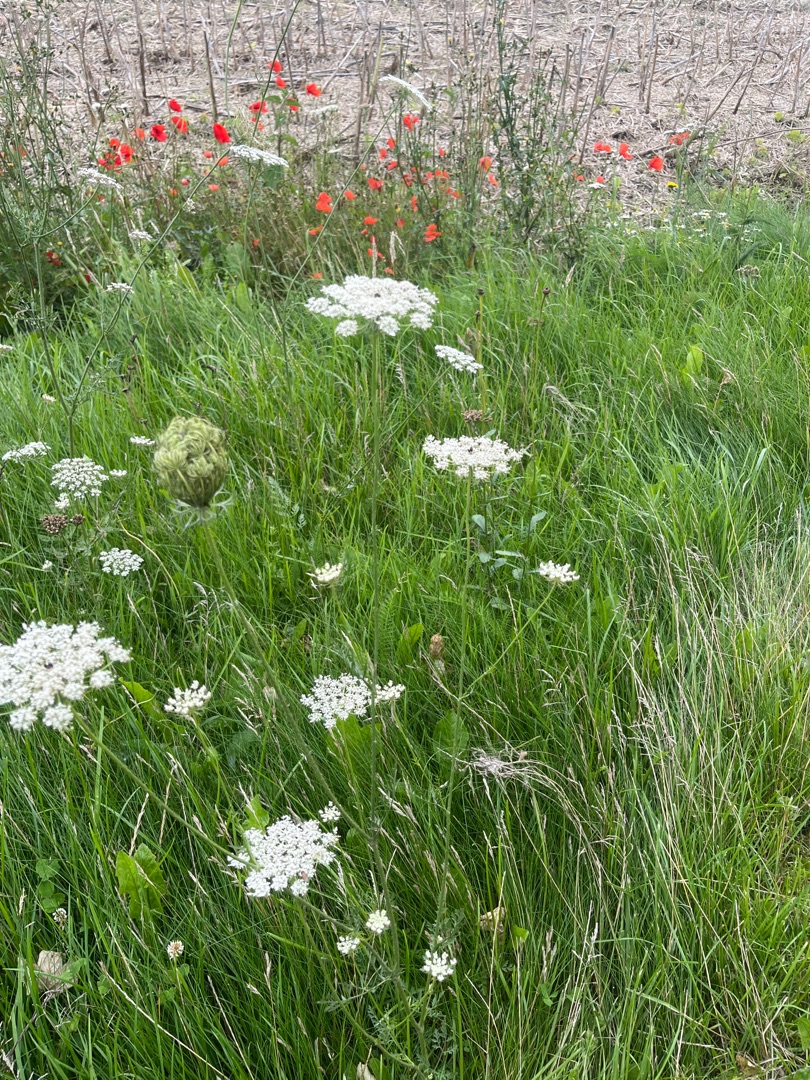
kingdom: Plantae
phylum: Tracheophyta
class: Magnoliopsida
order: Apiales
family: Apiaceae
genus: Daucus
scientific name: Daucus carota
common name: Gulerod
